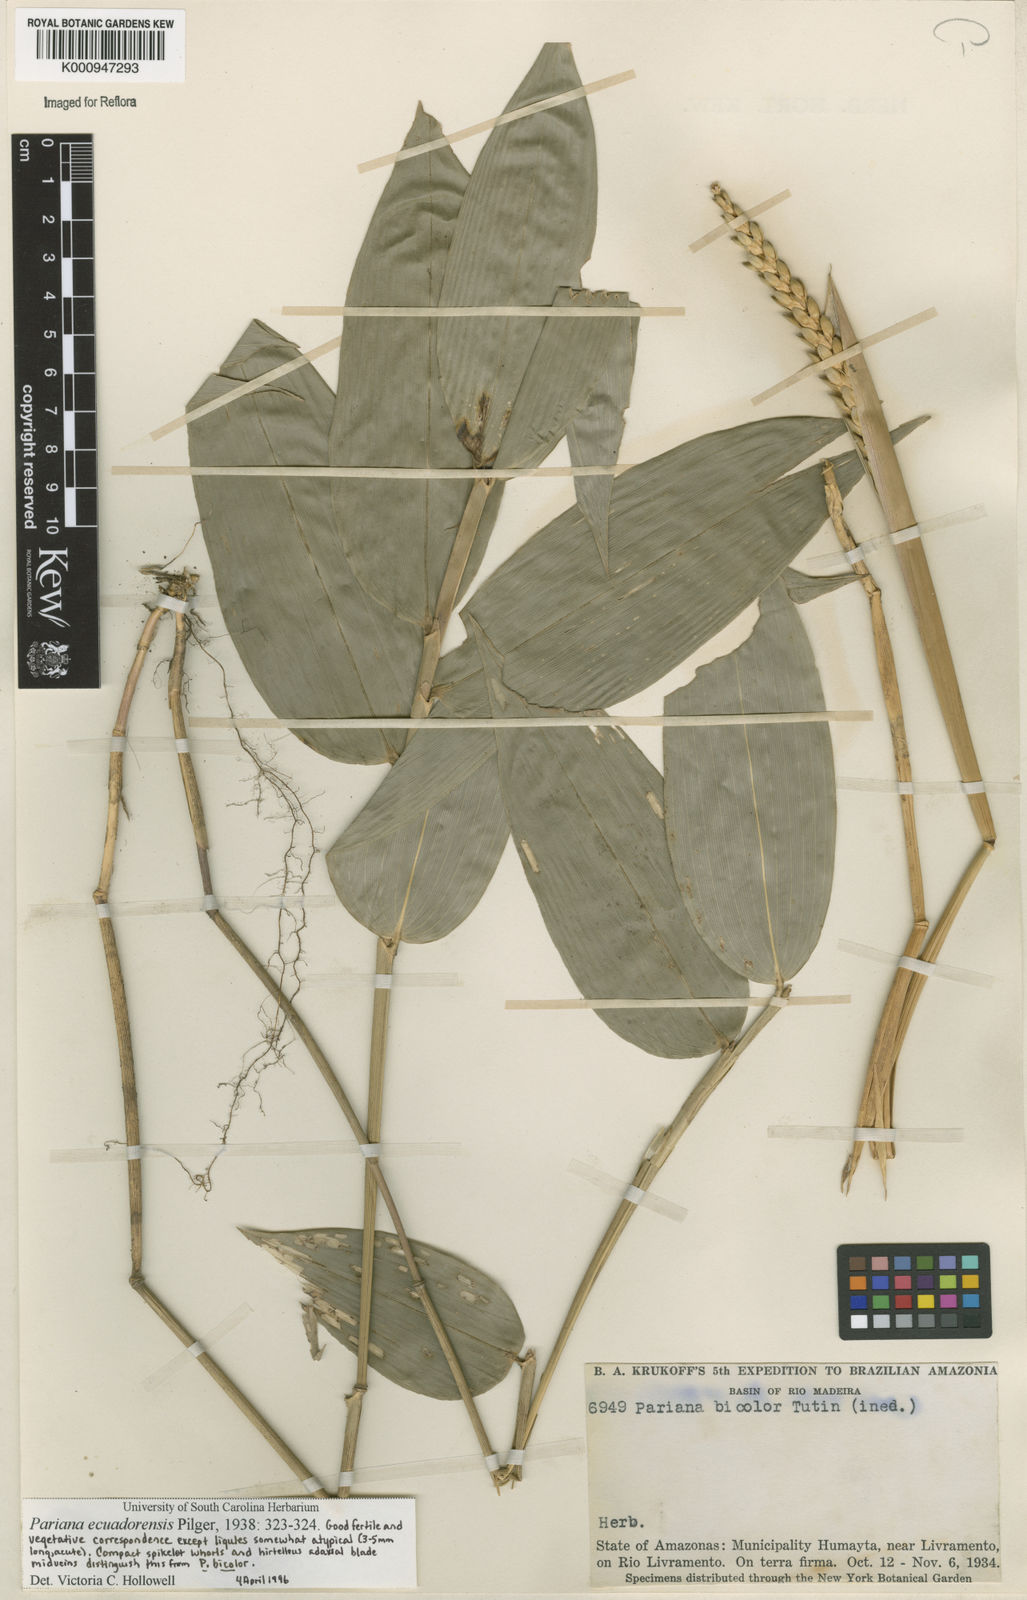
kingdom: Plantae
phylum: Tracheophyta
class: Liliopsida
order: Poales
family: Poaceae
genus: Pariana
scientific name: Pariana ecuadorensis
